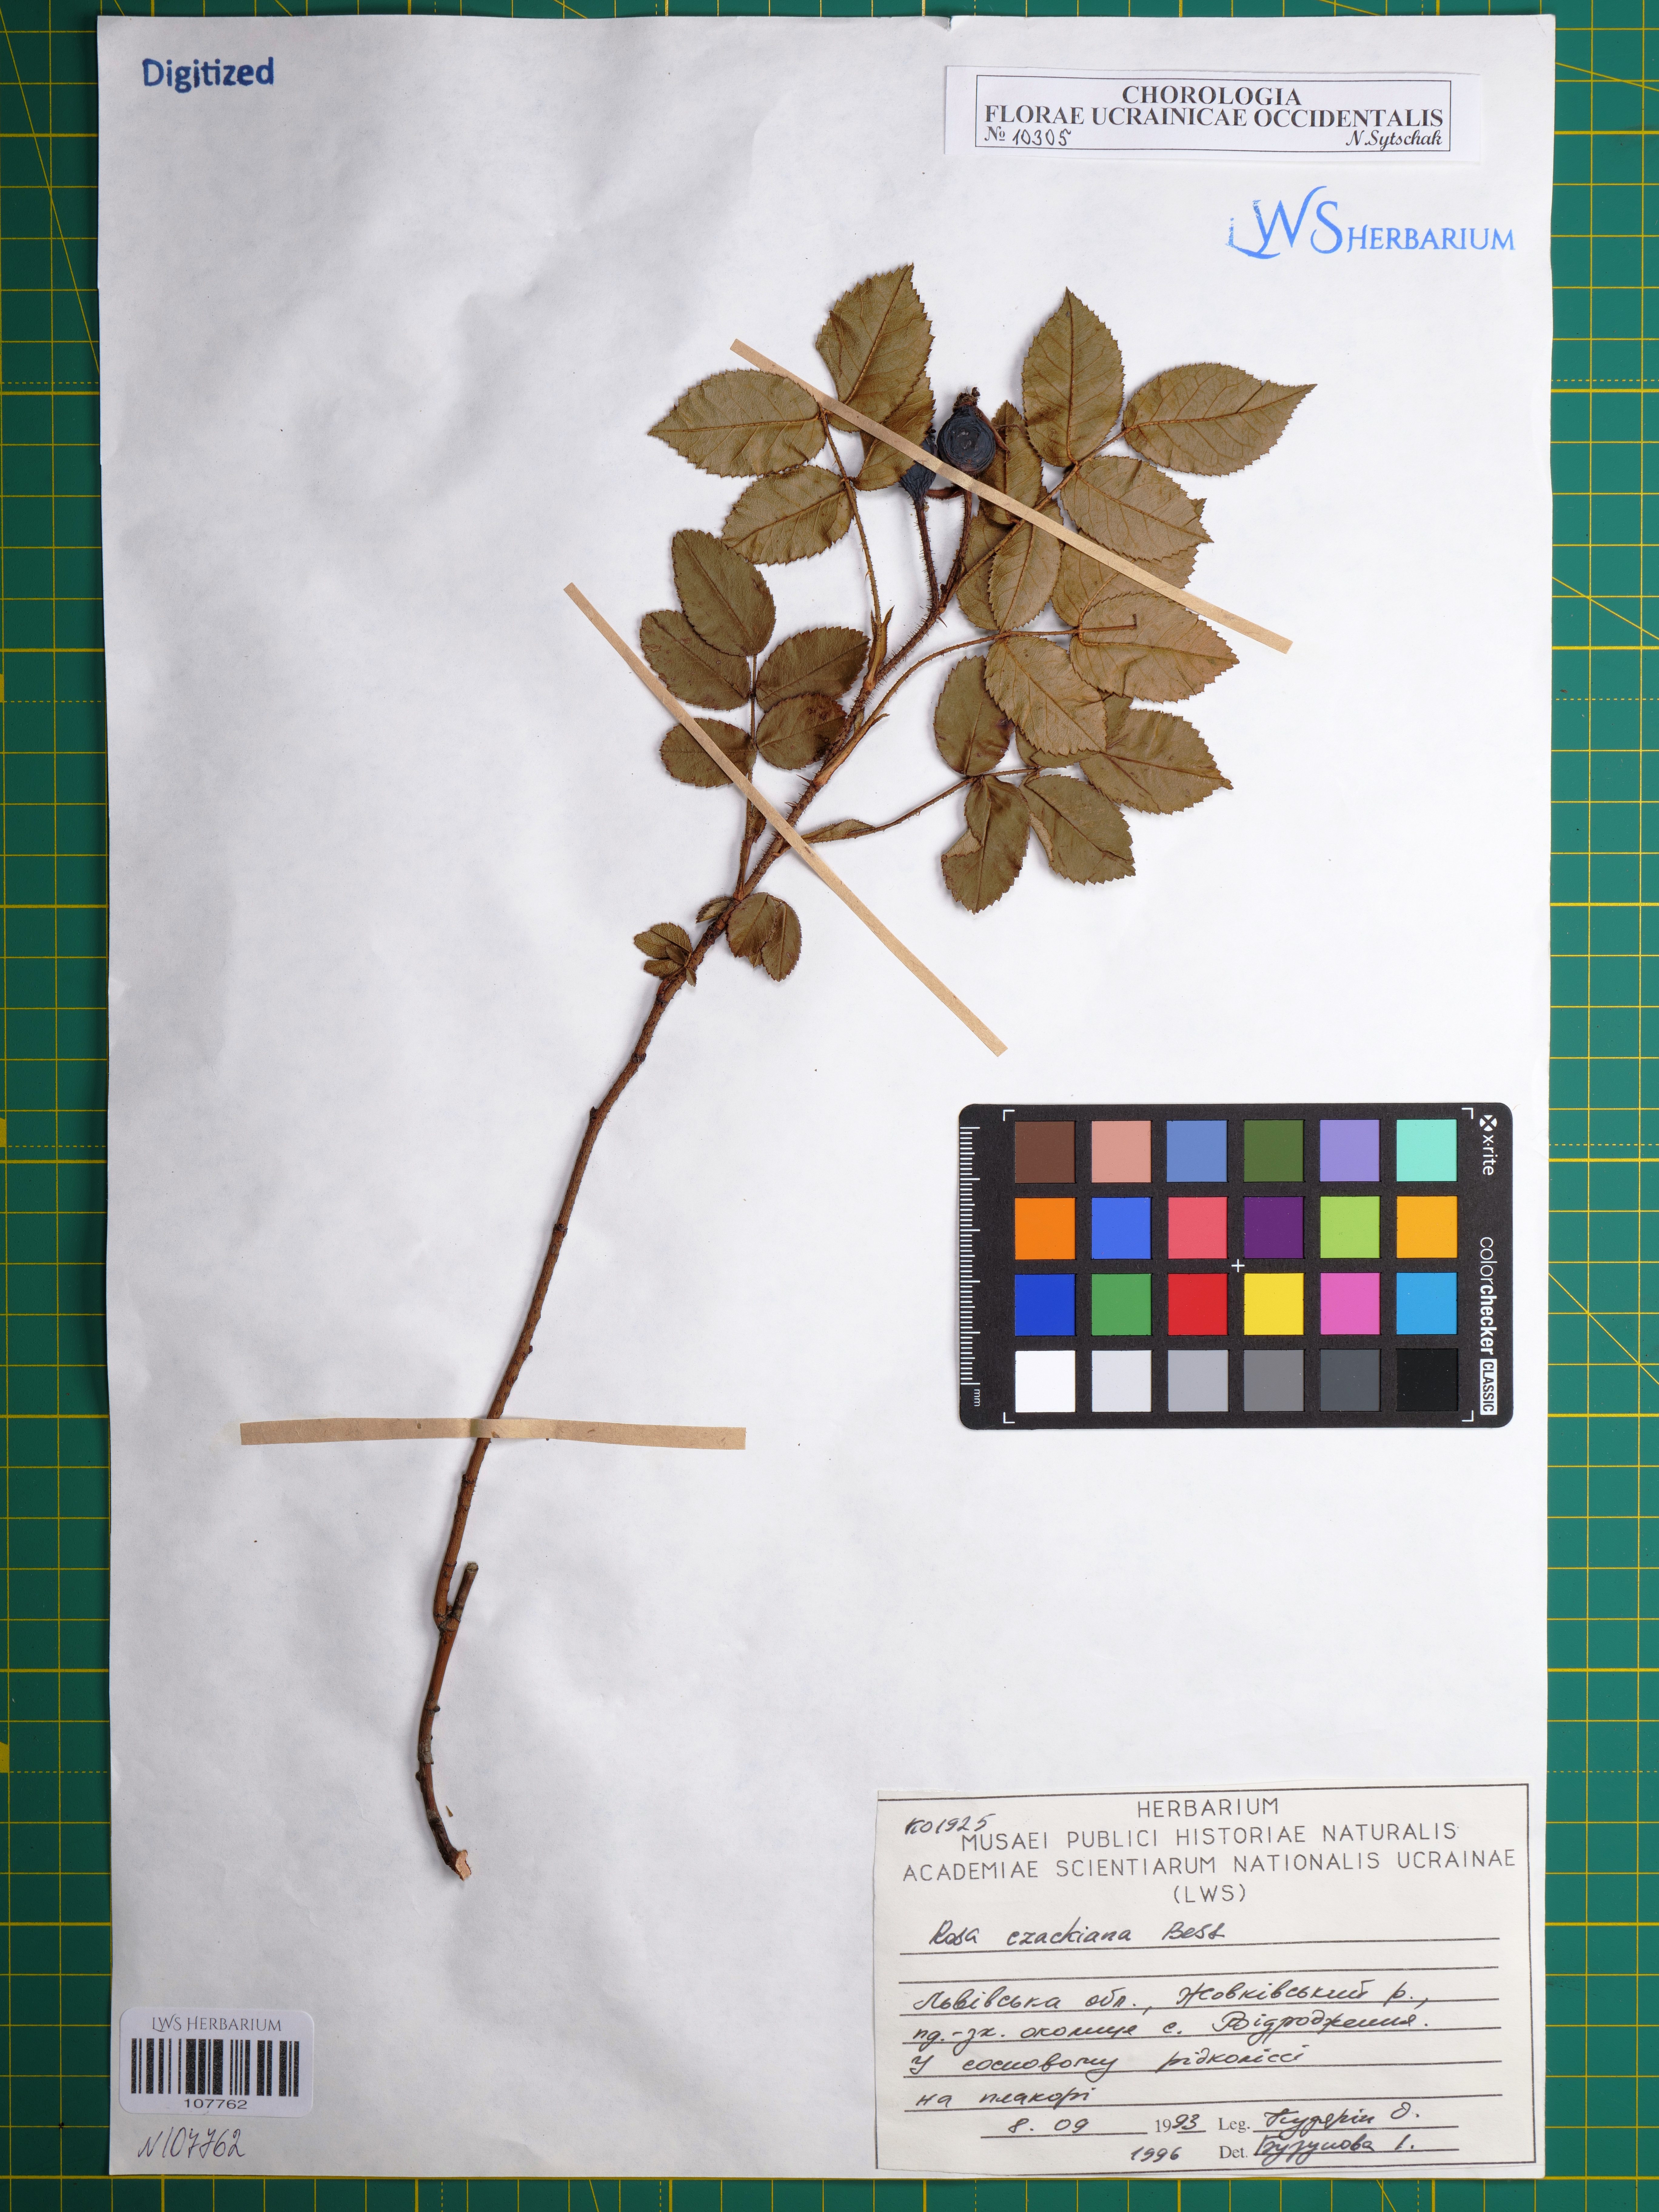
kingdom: Plantae
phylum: Tracheophyta
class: Magnoliopsida
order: Rosales
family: Rosaceae
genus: Rosa
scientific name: Rosa gallica
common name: French rose
